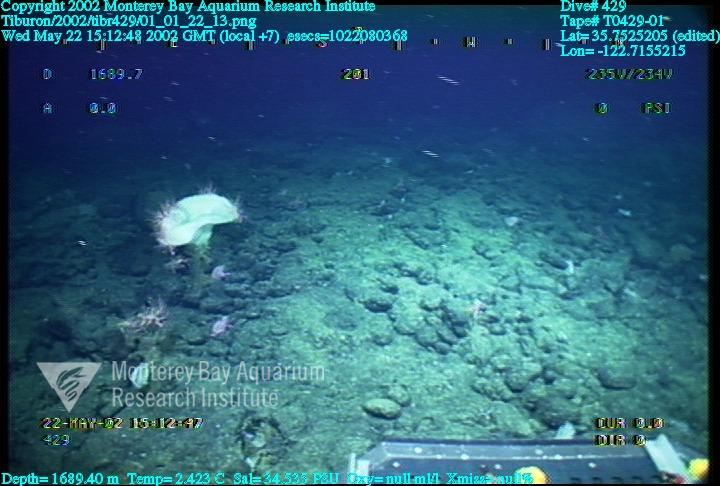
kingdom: Animalia
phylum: Porifera
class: Hexactinellida
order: Sceptrulophora
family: Euretidae
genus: Chonelasma
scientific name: Chonelasma
